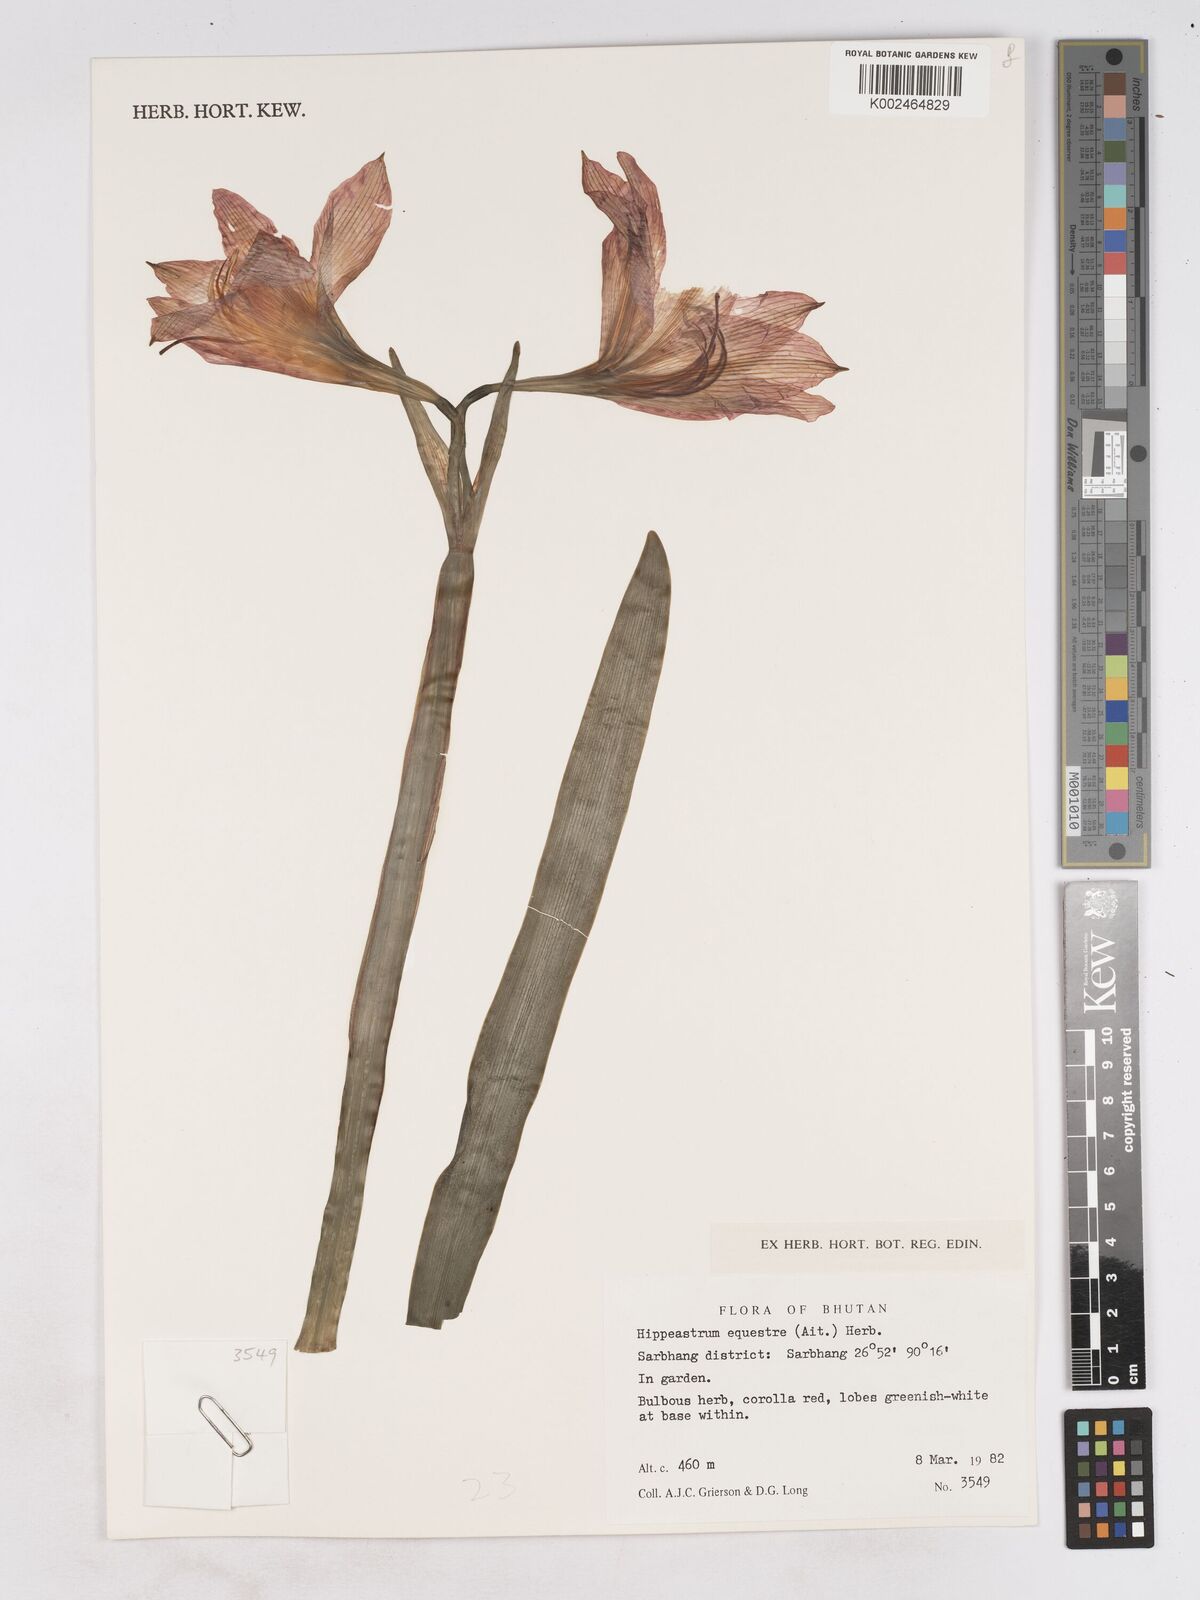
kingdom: Plantae
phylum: Tracheophyta
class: Liliopsida
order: Asparagales
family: Amaryllidaceae
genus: Hippeastrum
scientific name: Hippeastrum puniceum
